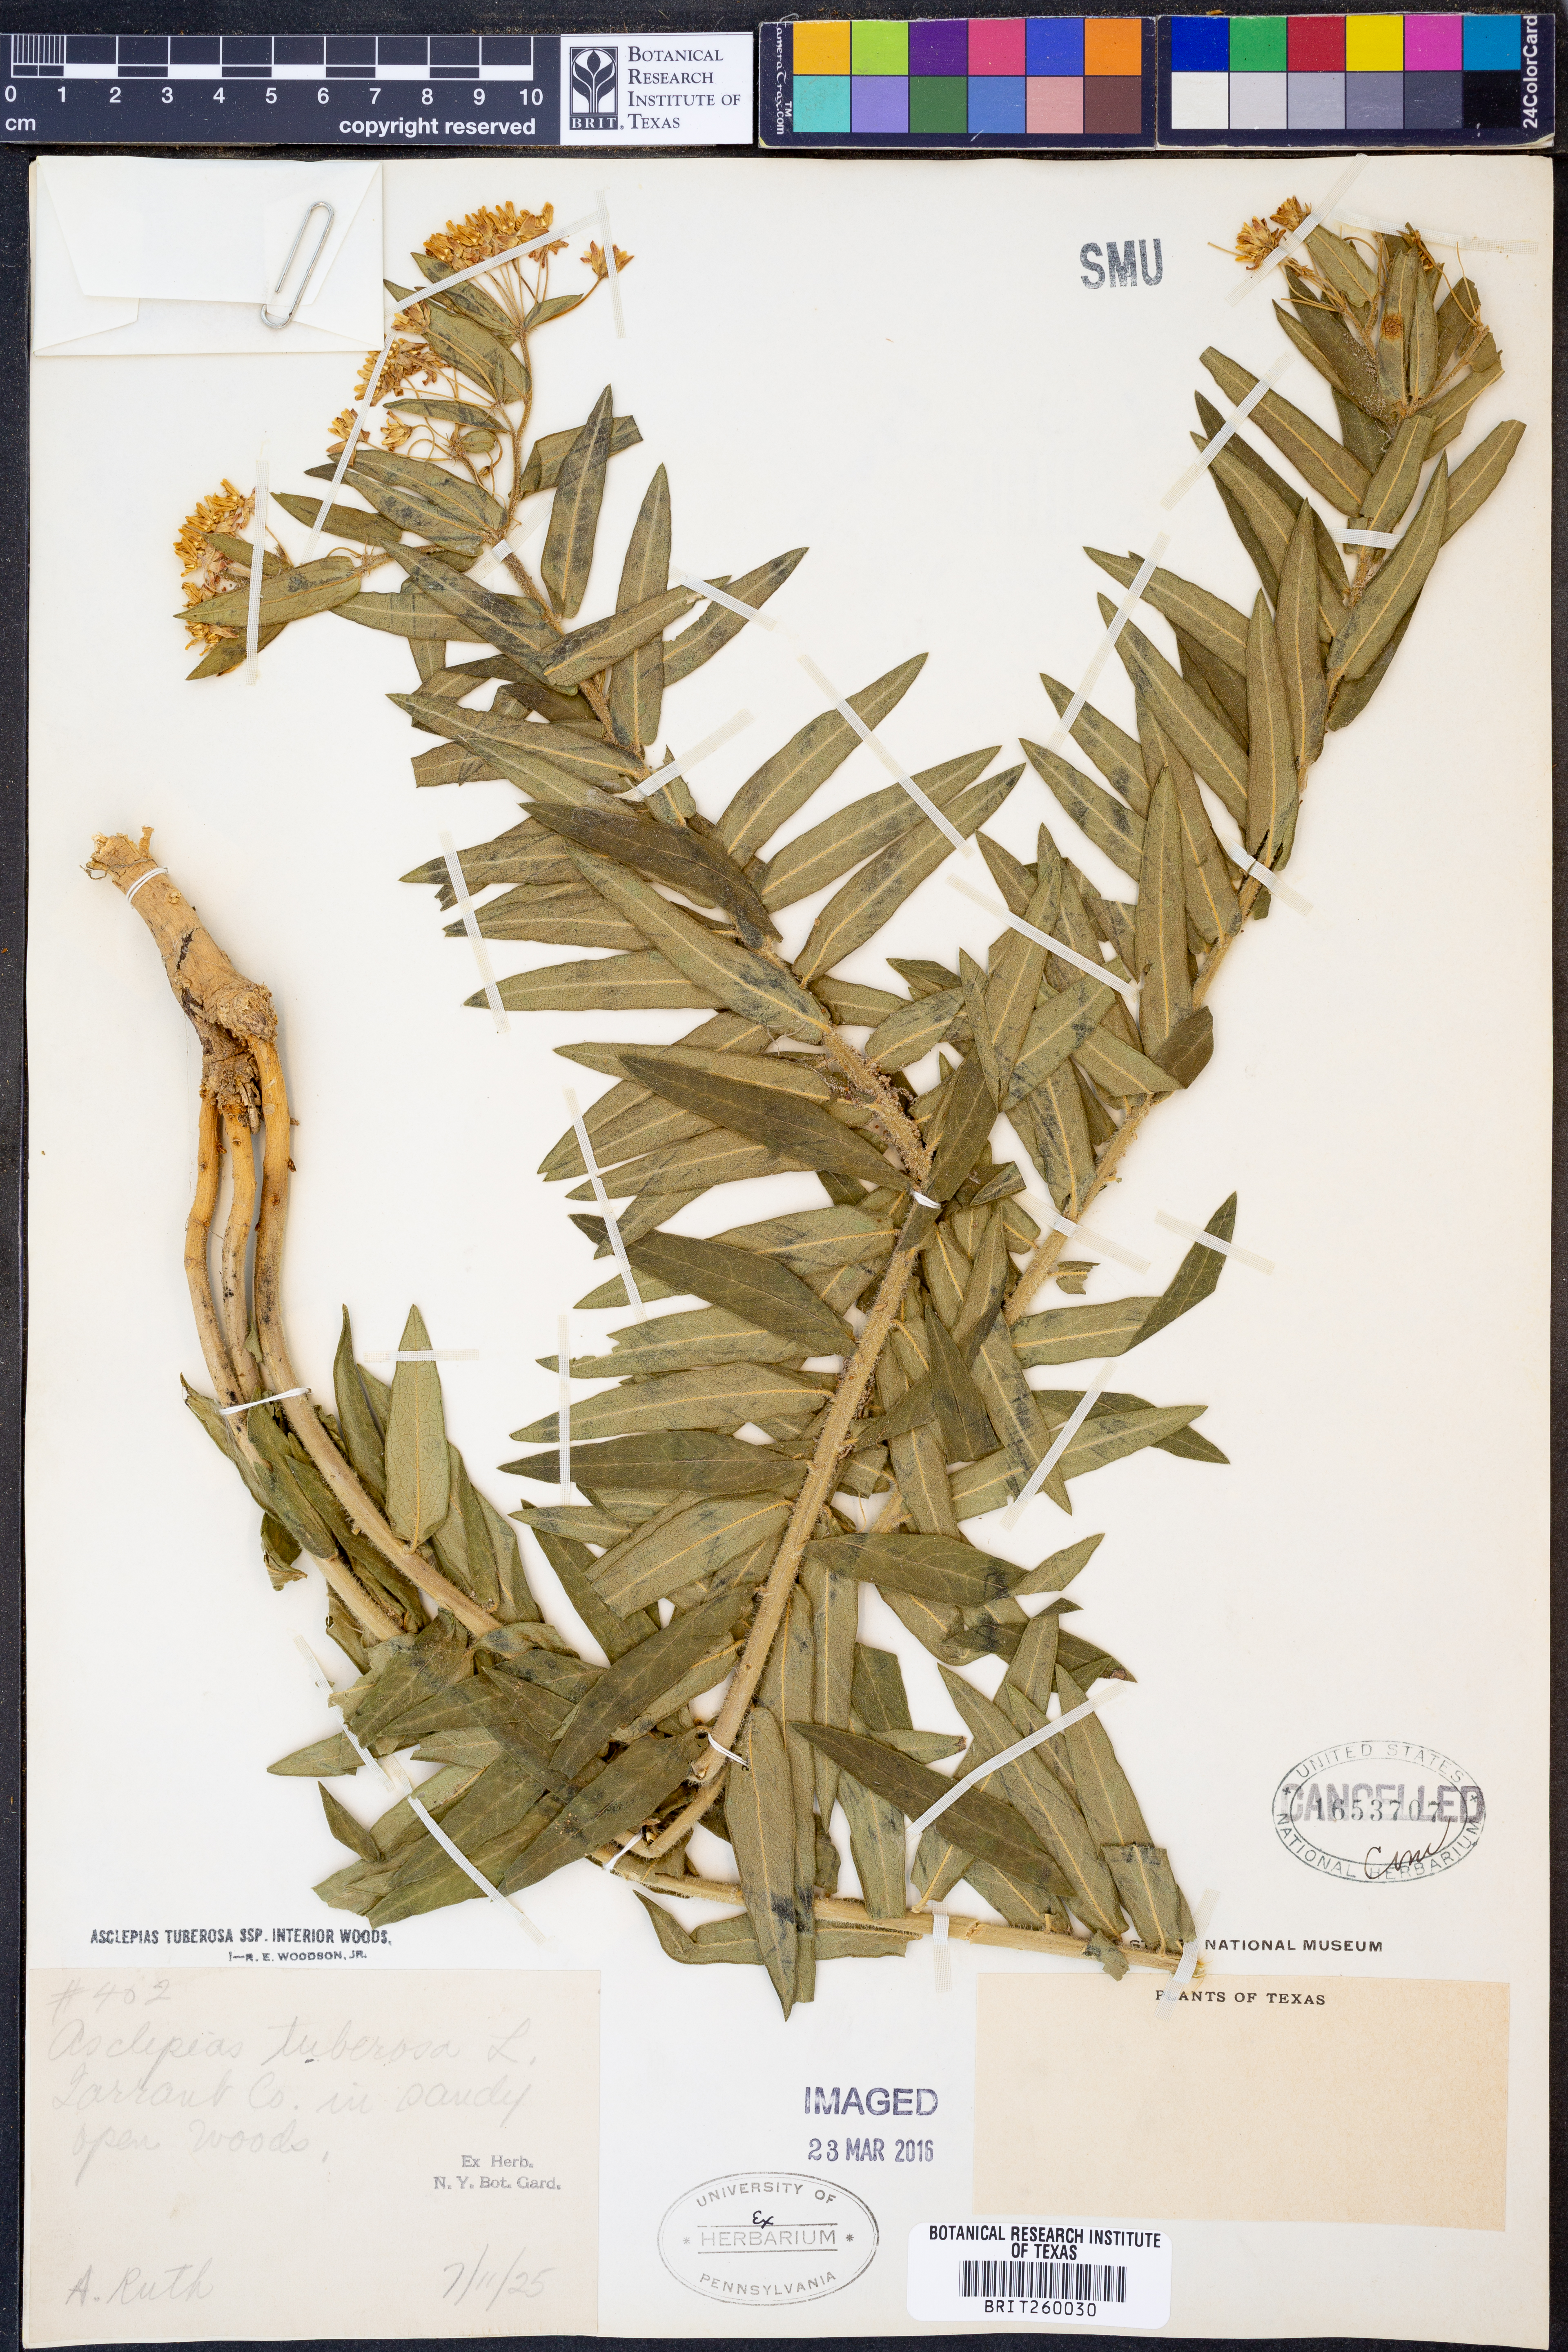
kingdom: Plantae
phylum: Tracheophyta
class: Magnoliopsida
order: Gentianales
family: Apocynaceae
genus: Asclepias
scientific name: Asclepias tuberosa
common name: Butterfly milkweed
